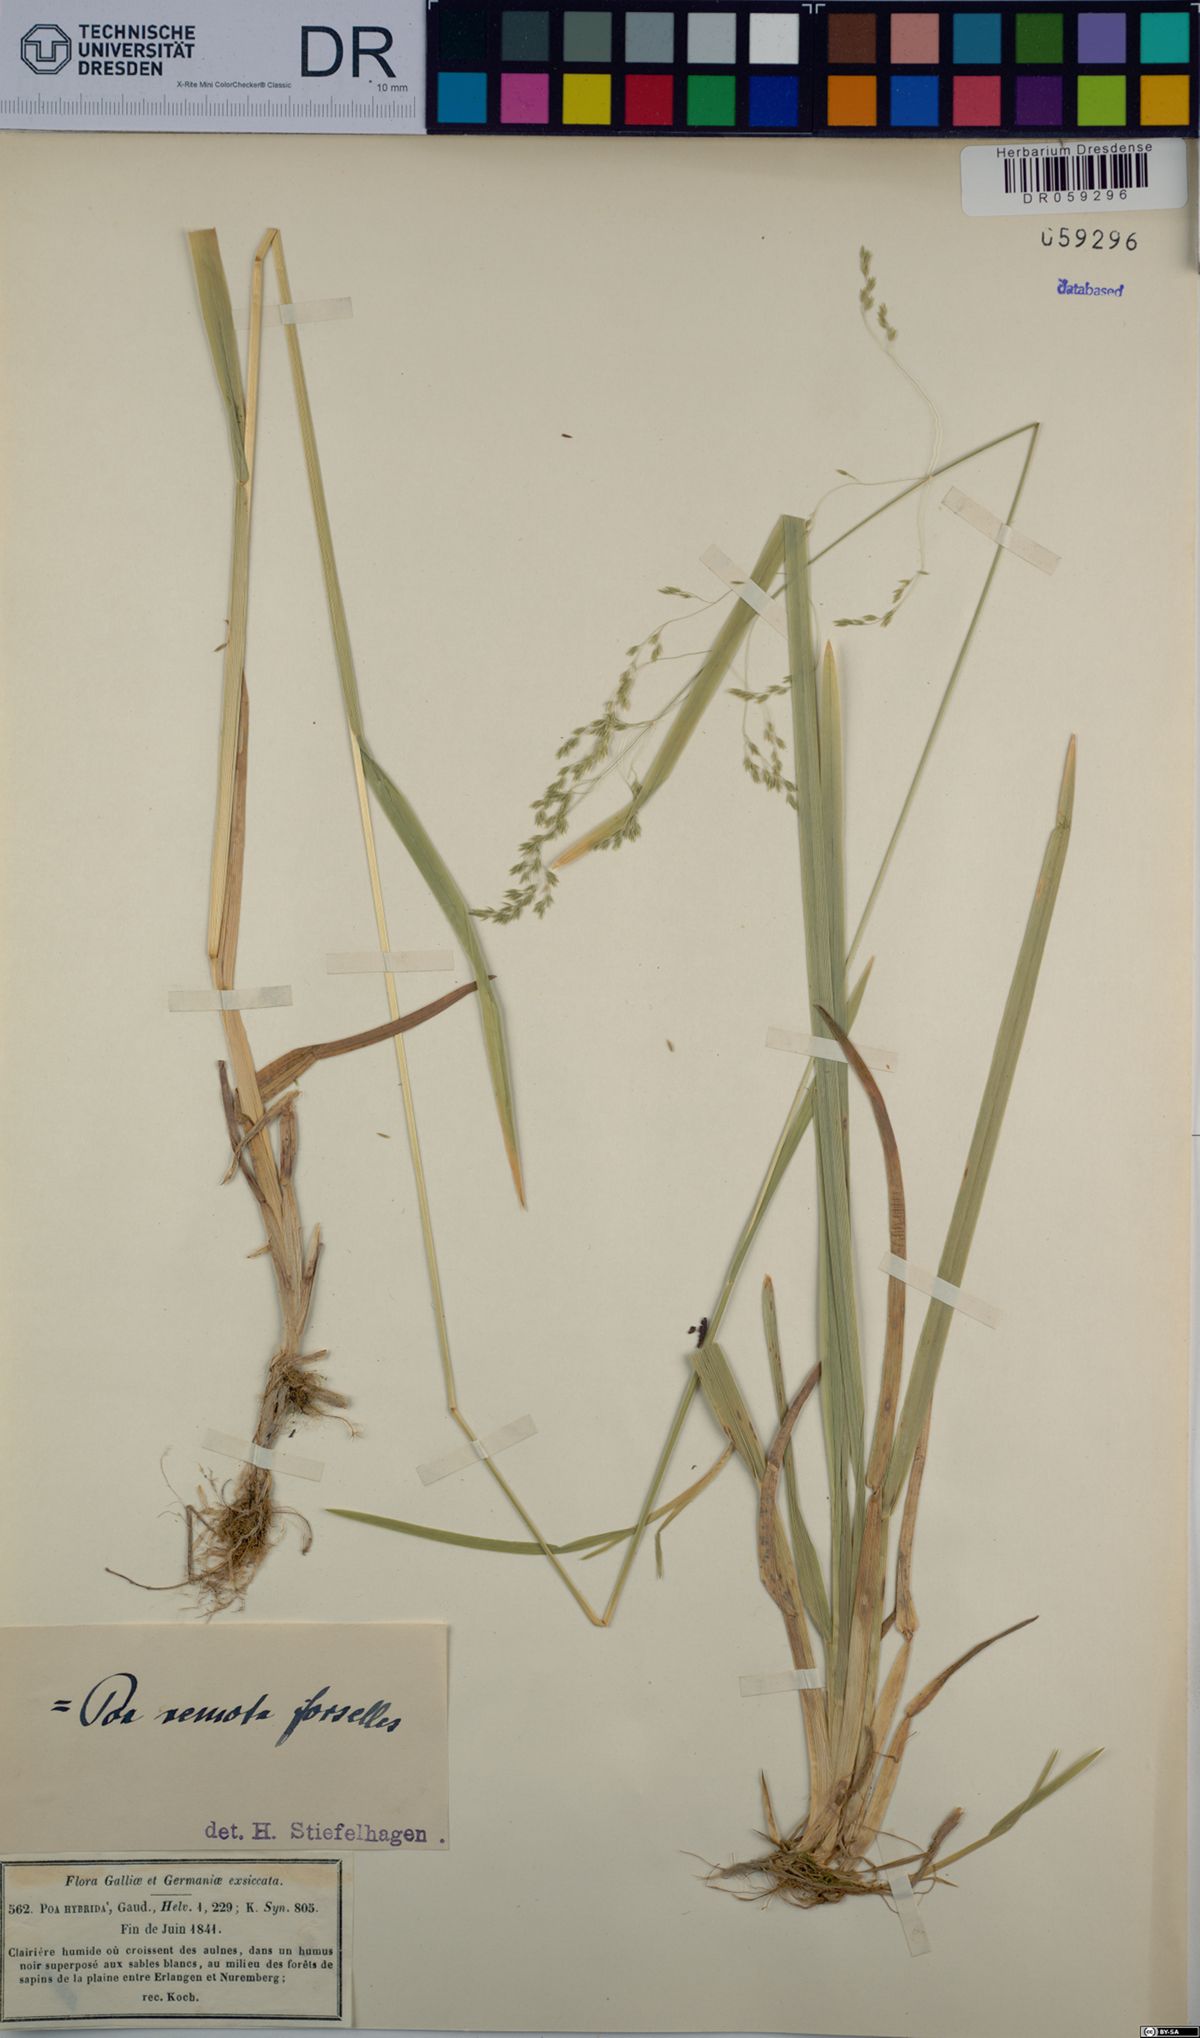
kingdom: Plantae
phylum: Tracheophyta
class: Liliopsida
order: Poales
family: Poaceae
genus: Poa
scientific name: Poa remota
